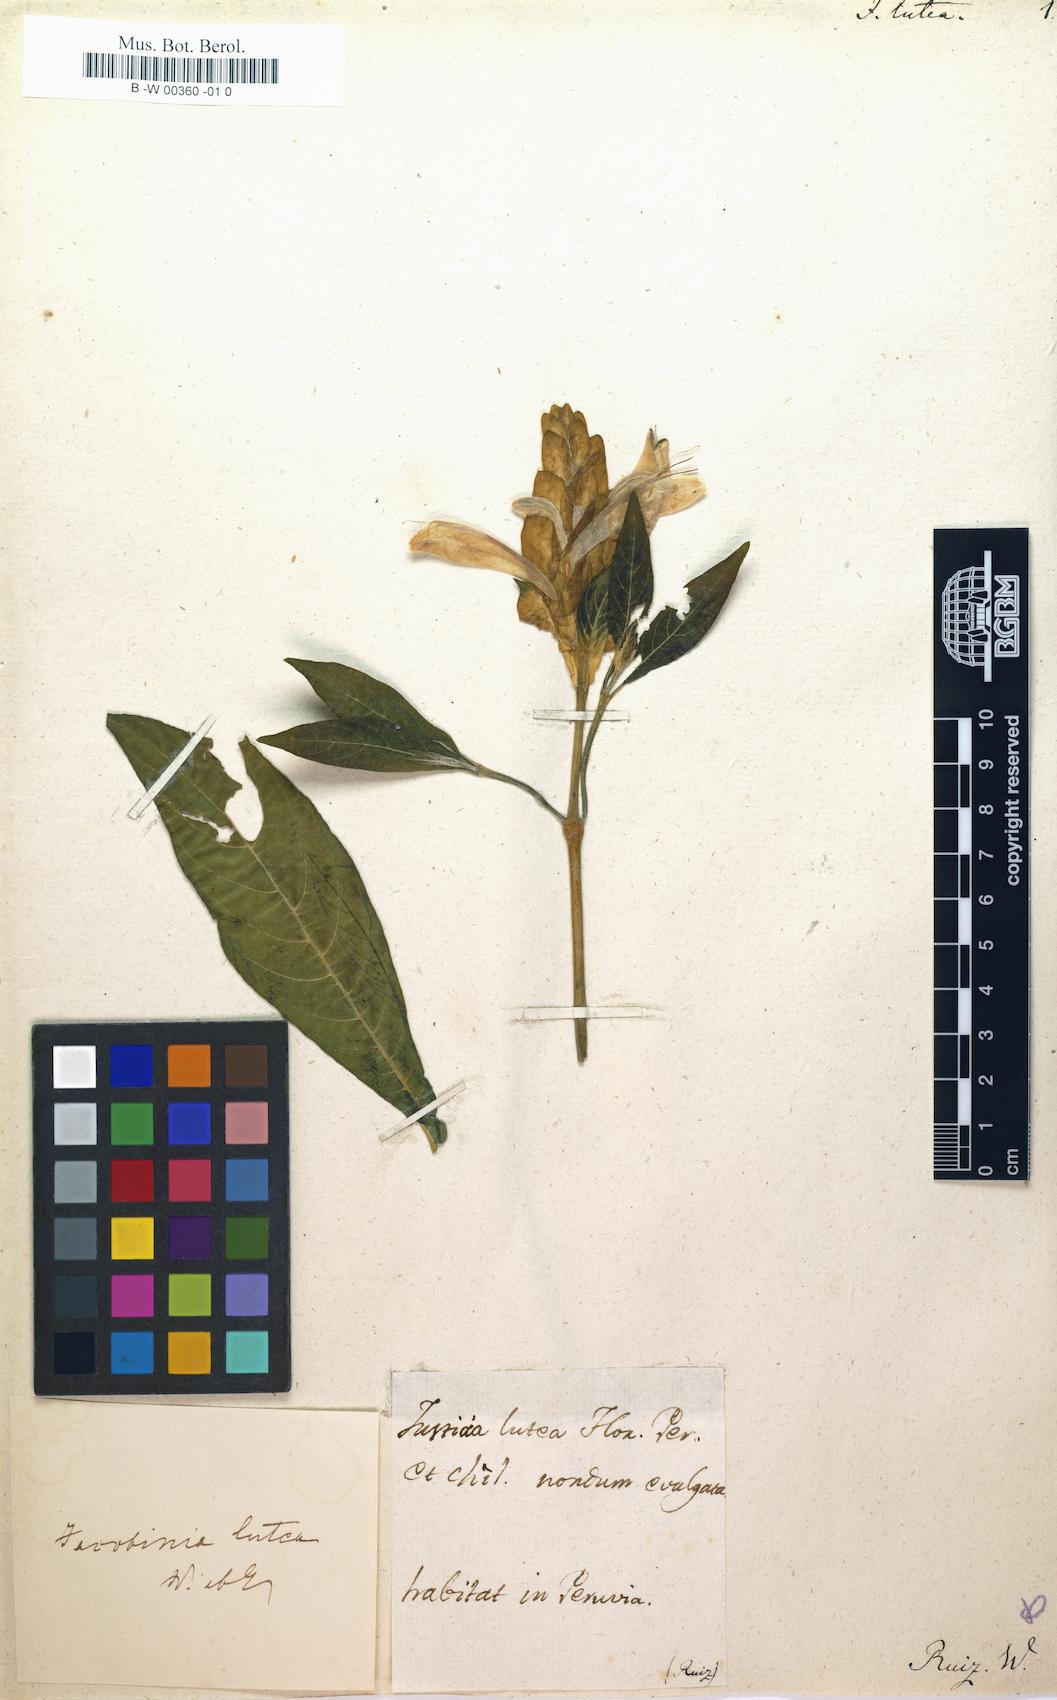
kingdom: Plantae
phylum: Tracheophyta
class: Magnoliopsida
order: Lamiales
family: Acanthaceae
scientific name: Acanthaceae
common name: Acanthaceae
